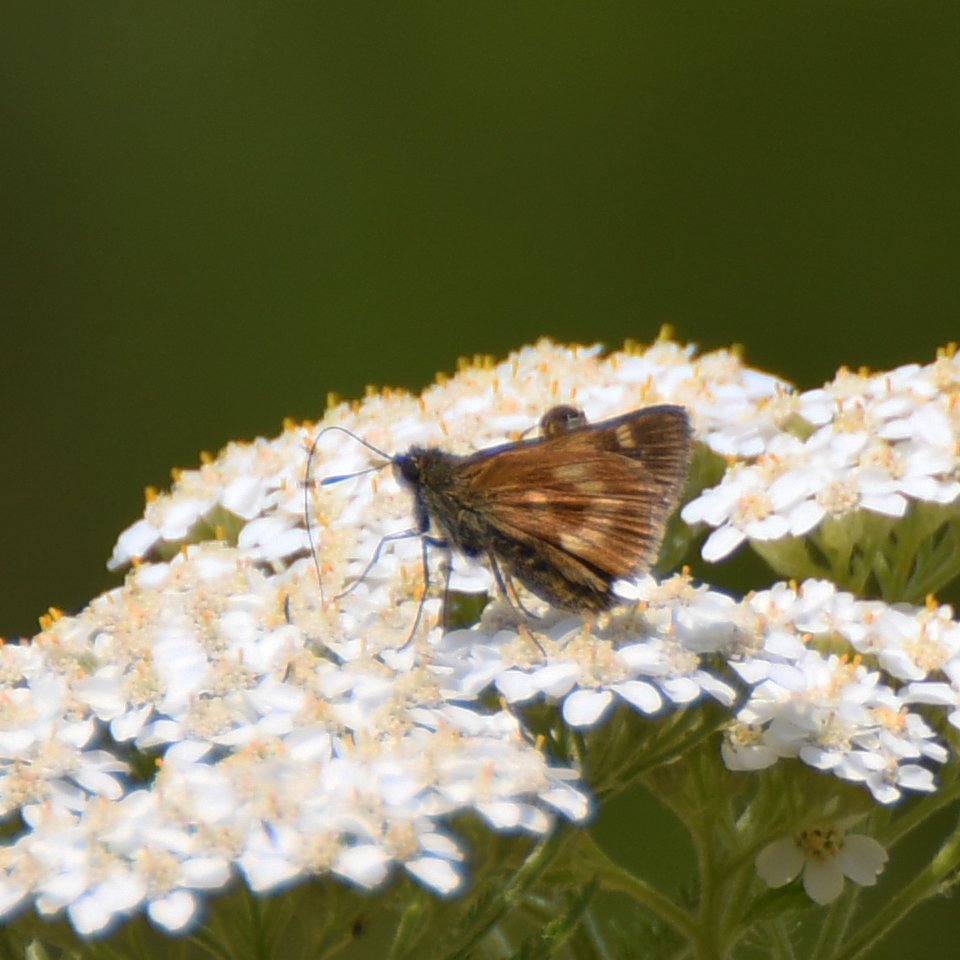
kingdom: Animalia
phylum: Arthropoda
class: Insecta
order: Lepidoptera
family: Hesperiidae
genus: Polites
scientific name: Polites
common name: Long Dash Skipper
